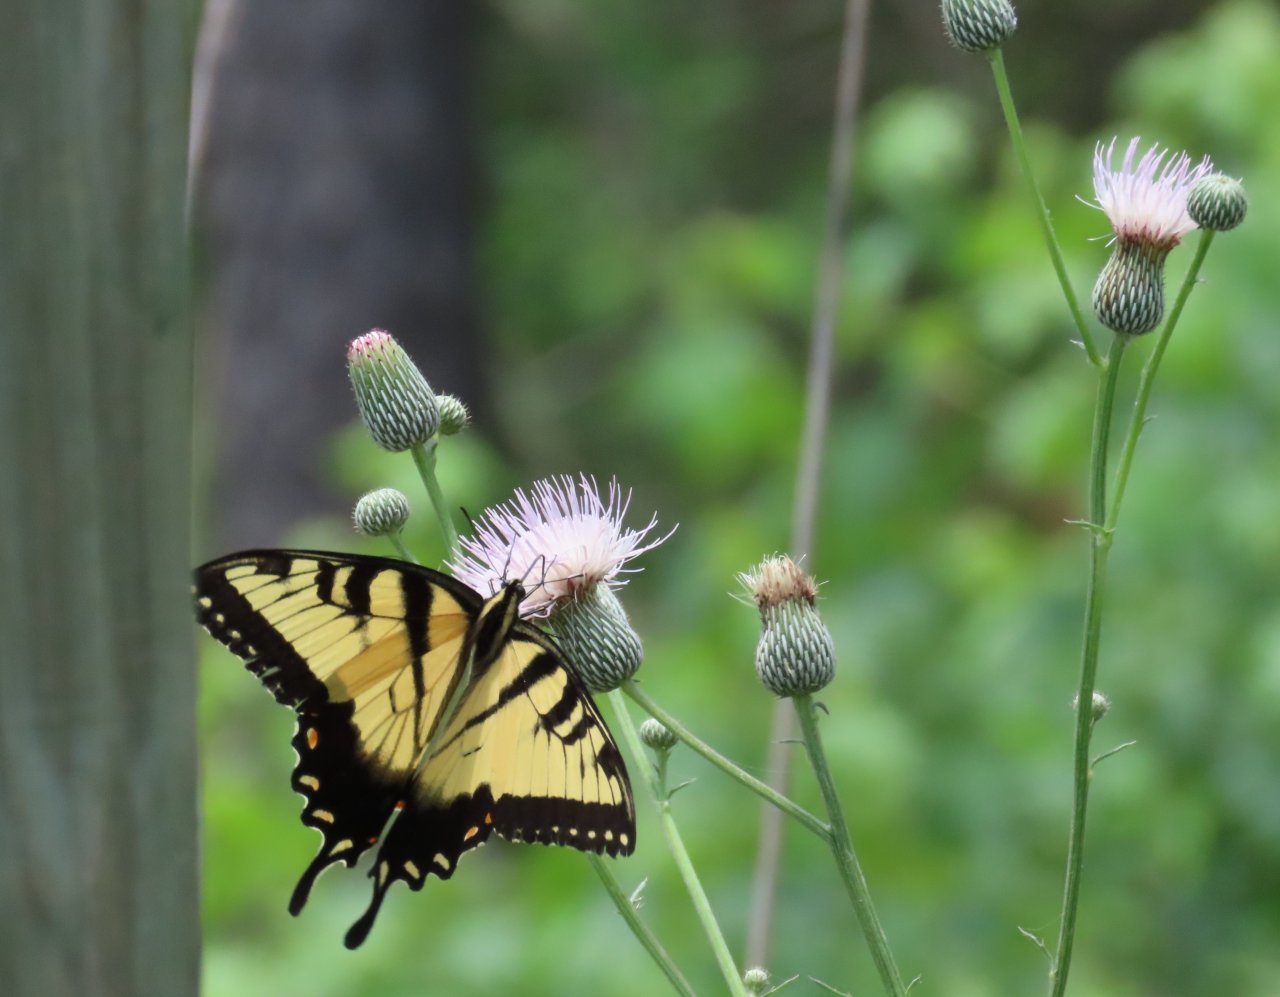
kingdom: Animalia
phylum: Arthropoda
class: Insecta
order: Lepidoptera
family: Papilionidae
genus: Pterourus
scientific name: Pterourus glaucus
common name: Eastern Tiger Swallowtail
